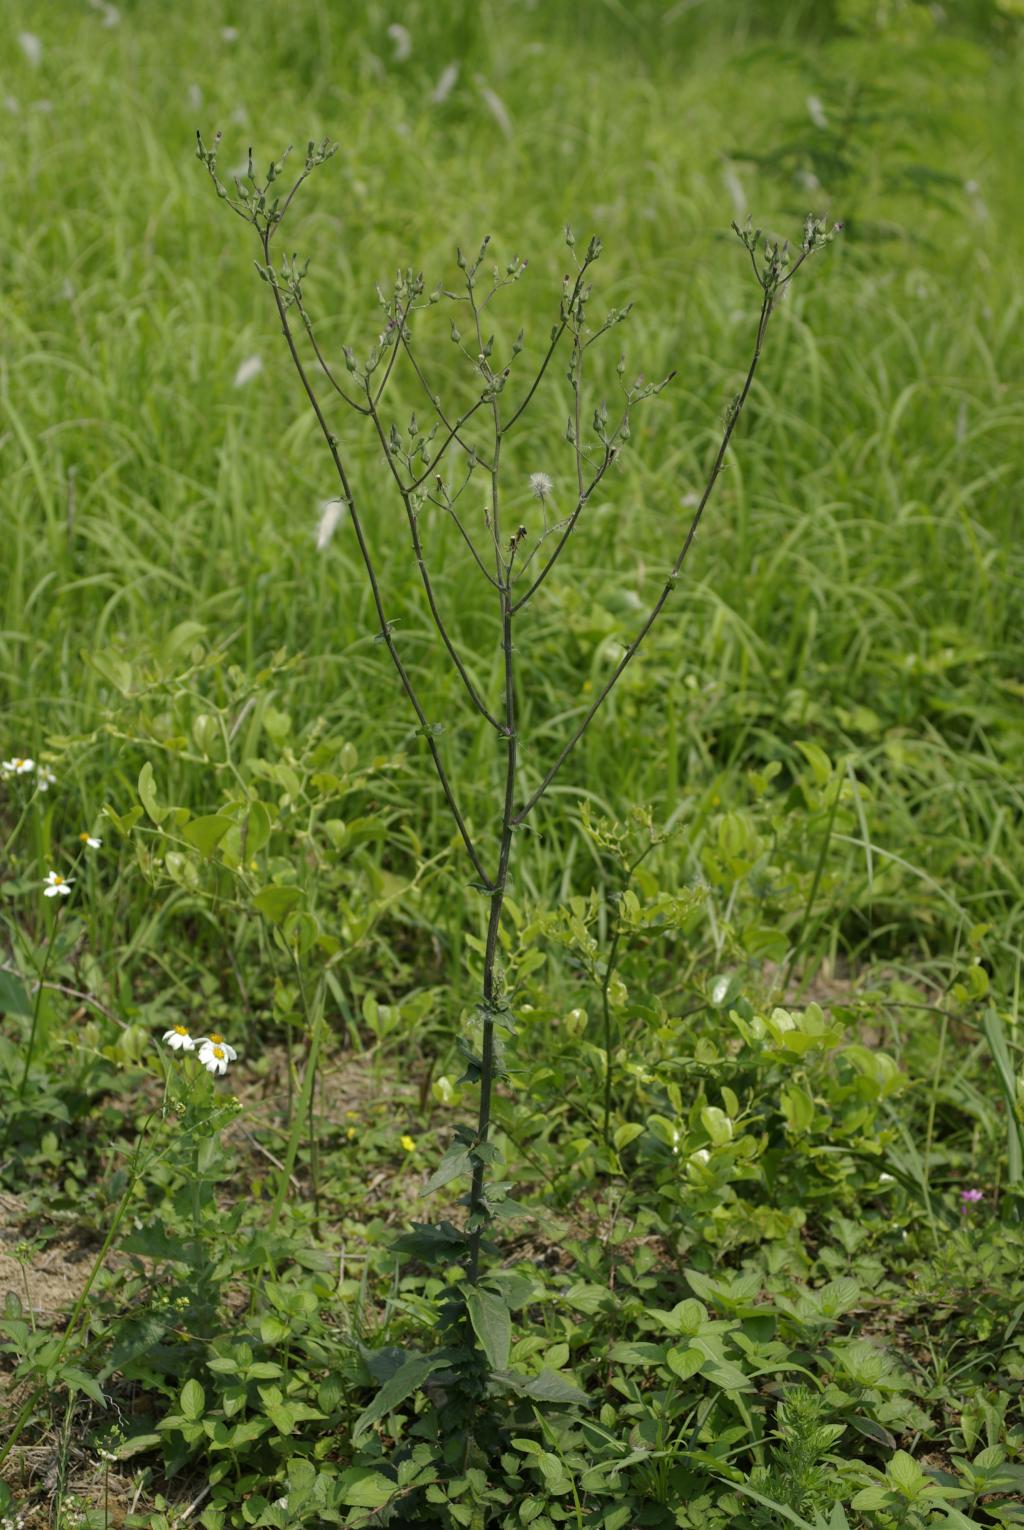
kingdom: Plantae
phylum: Tracheophyta
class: Magnoliopsida
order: Asterales
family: Asteraceae
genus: Lactuca
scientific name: Lactuca indica
